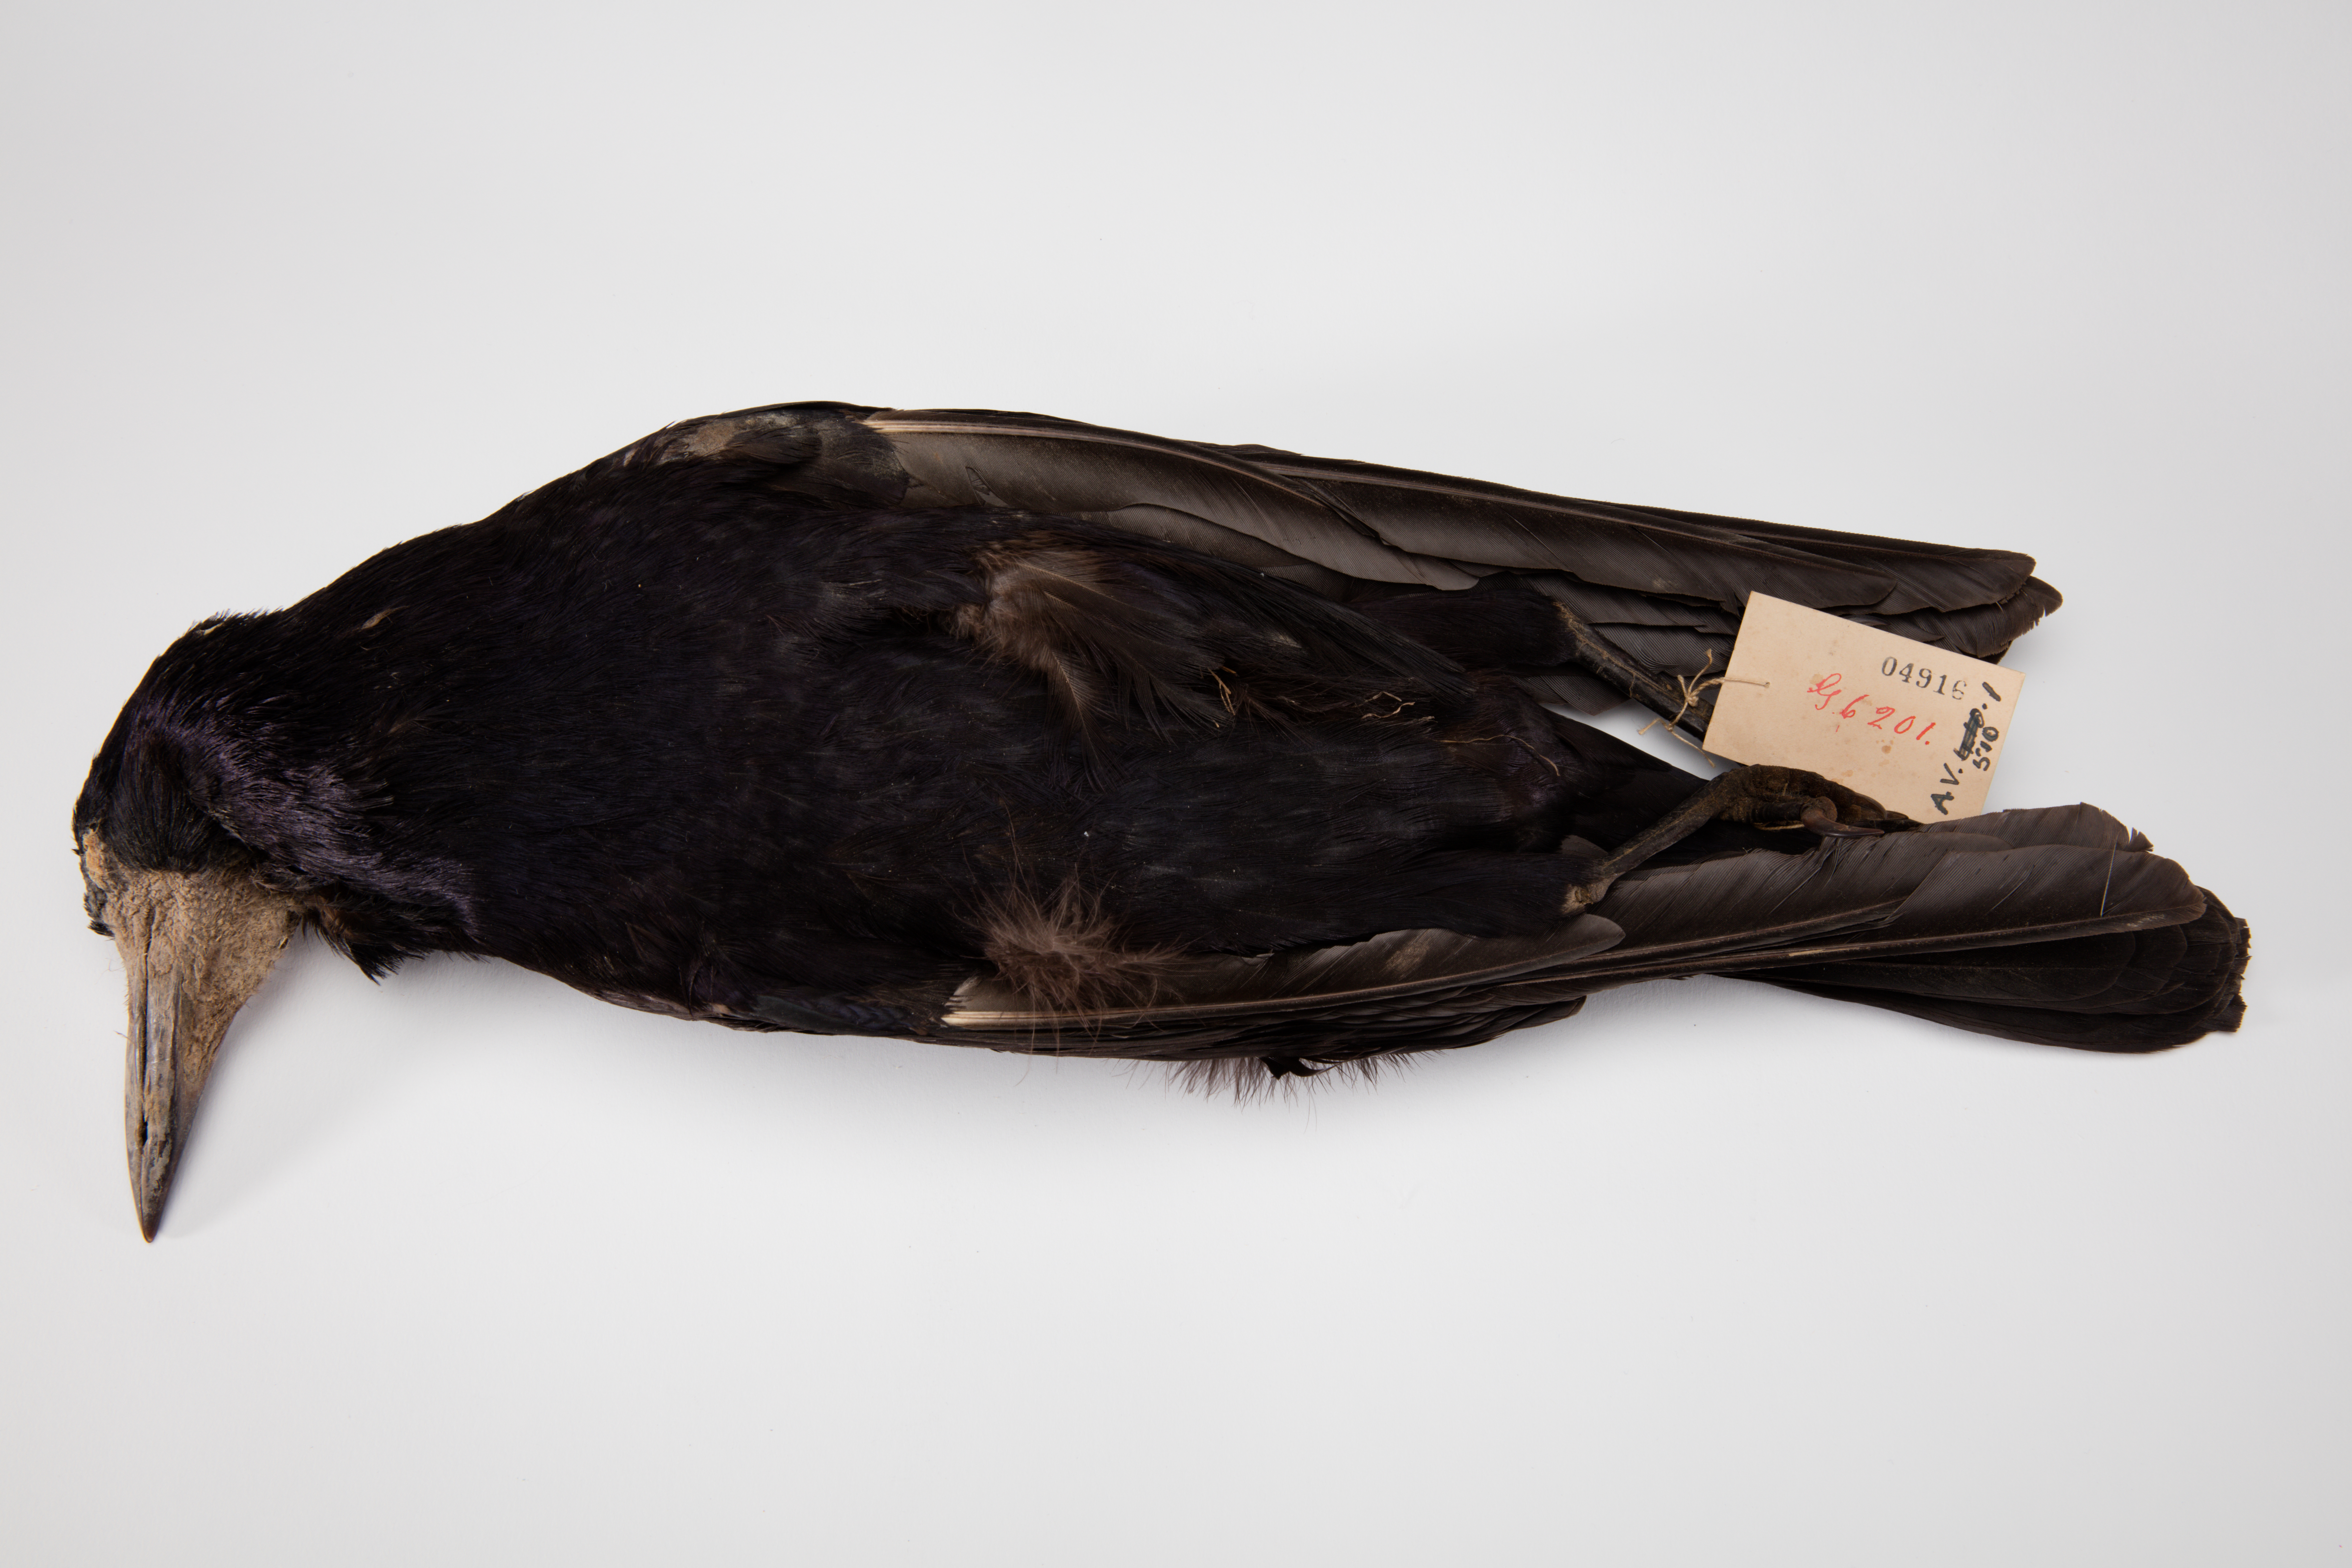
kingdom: Animalia
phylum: Chordata
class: Aves
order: Passeriformes
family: Corvidae
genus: Corvus
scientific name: Corvus frugilegus
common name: Rook
